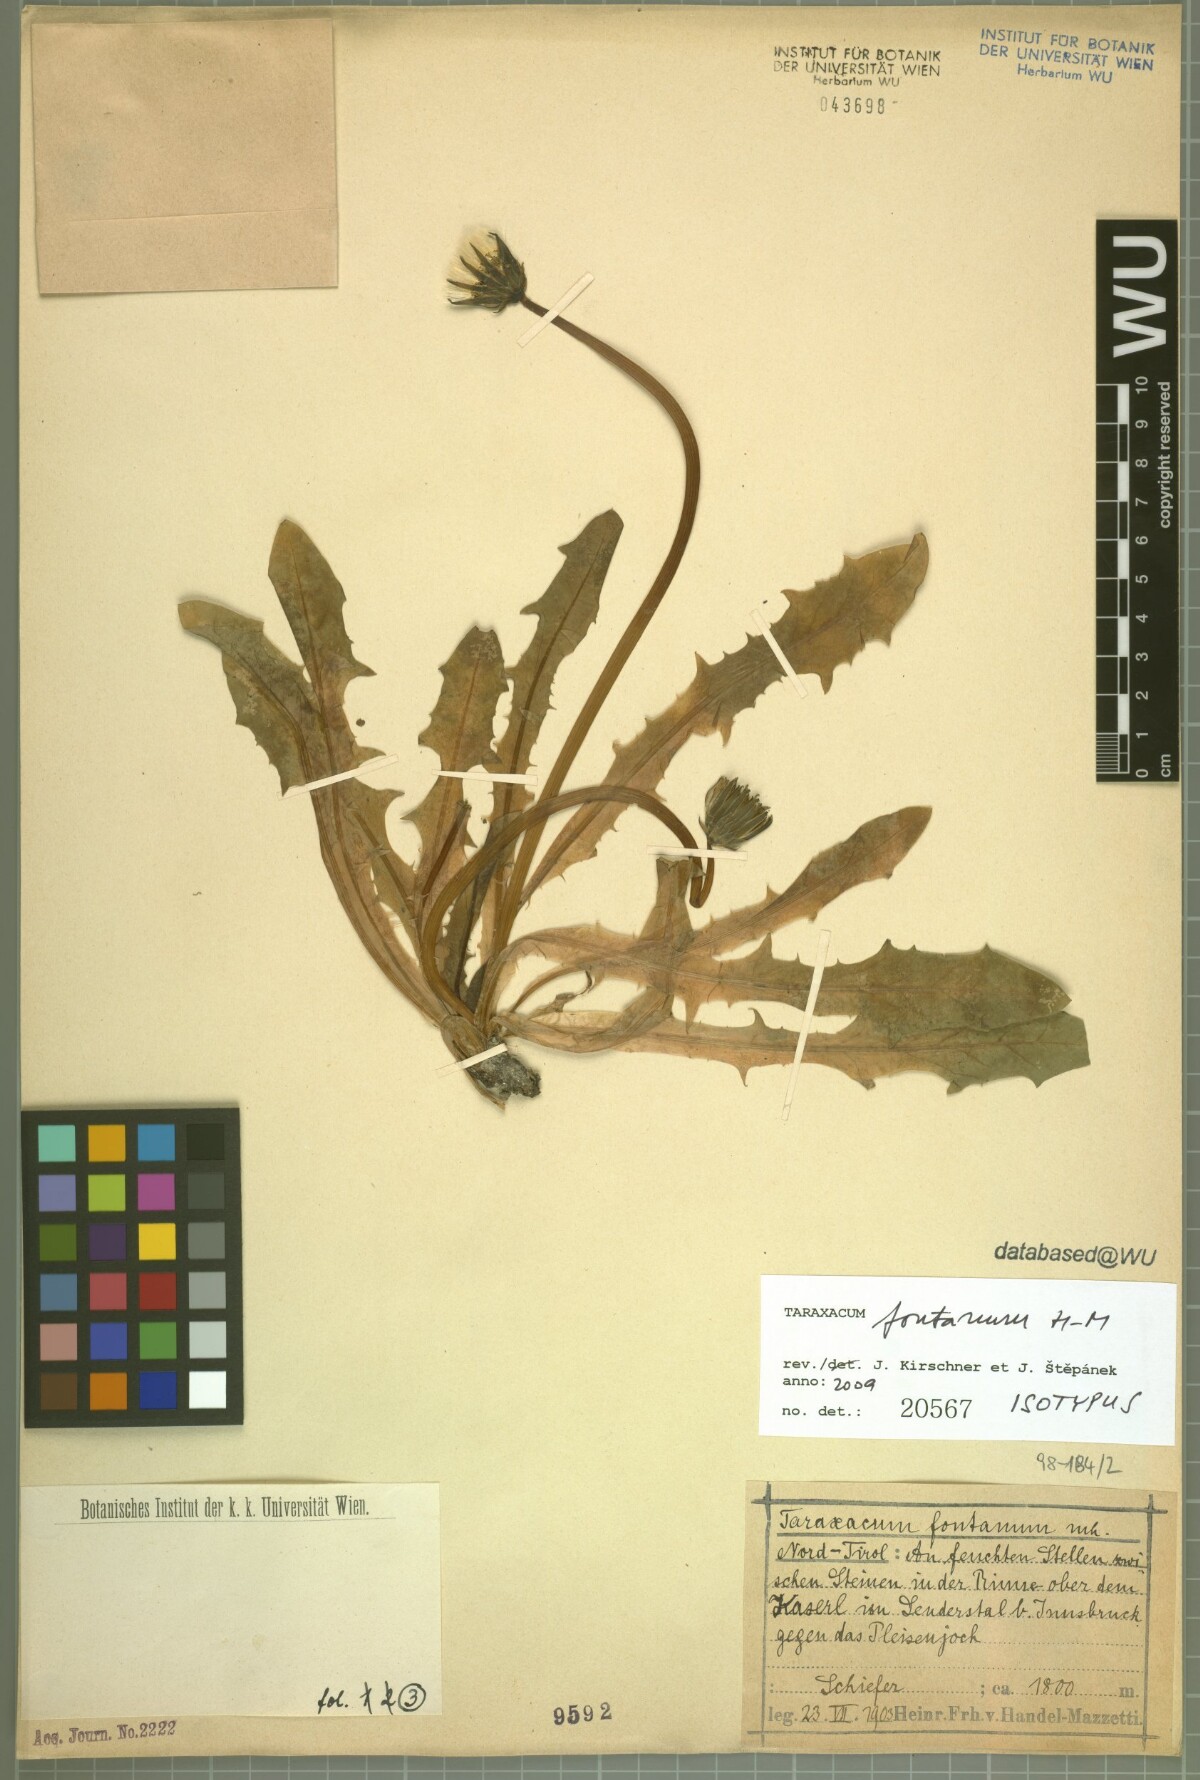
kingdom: Plantae
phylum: Tracheophyta
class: Magnoliopsida
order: Asterales
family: Asteraceae
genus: Taraxacum
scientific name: Taraxacum fontanum
